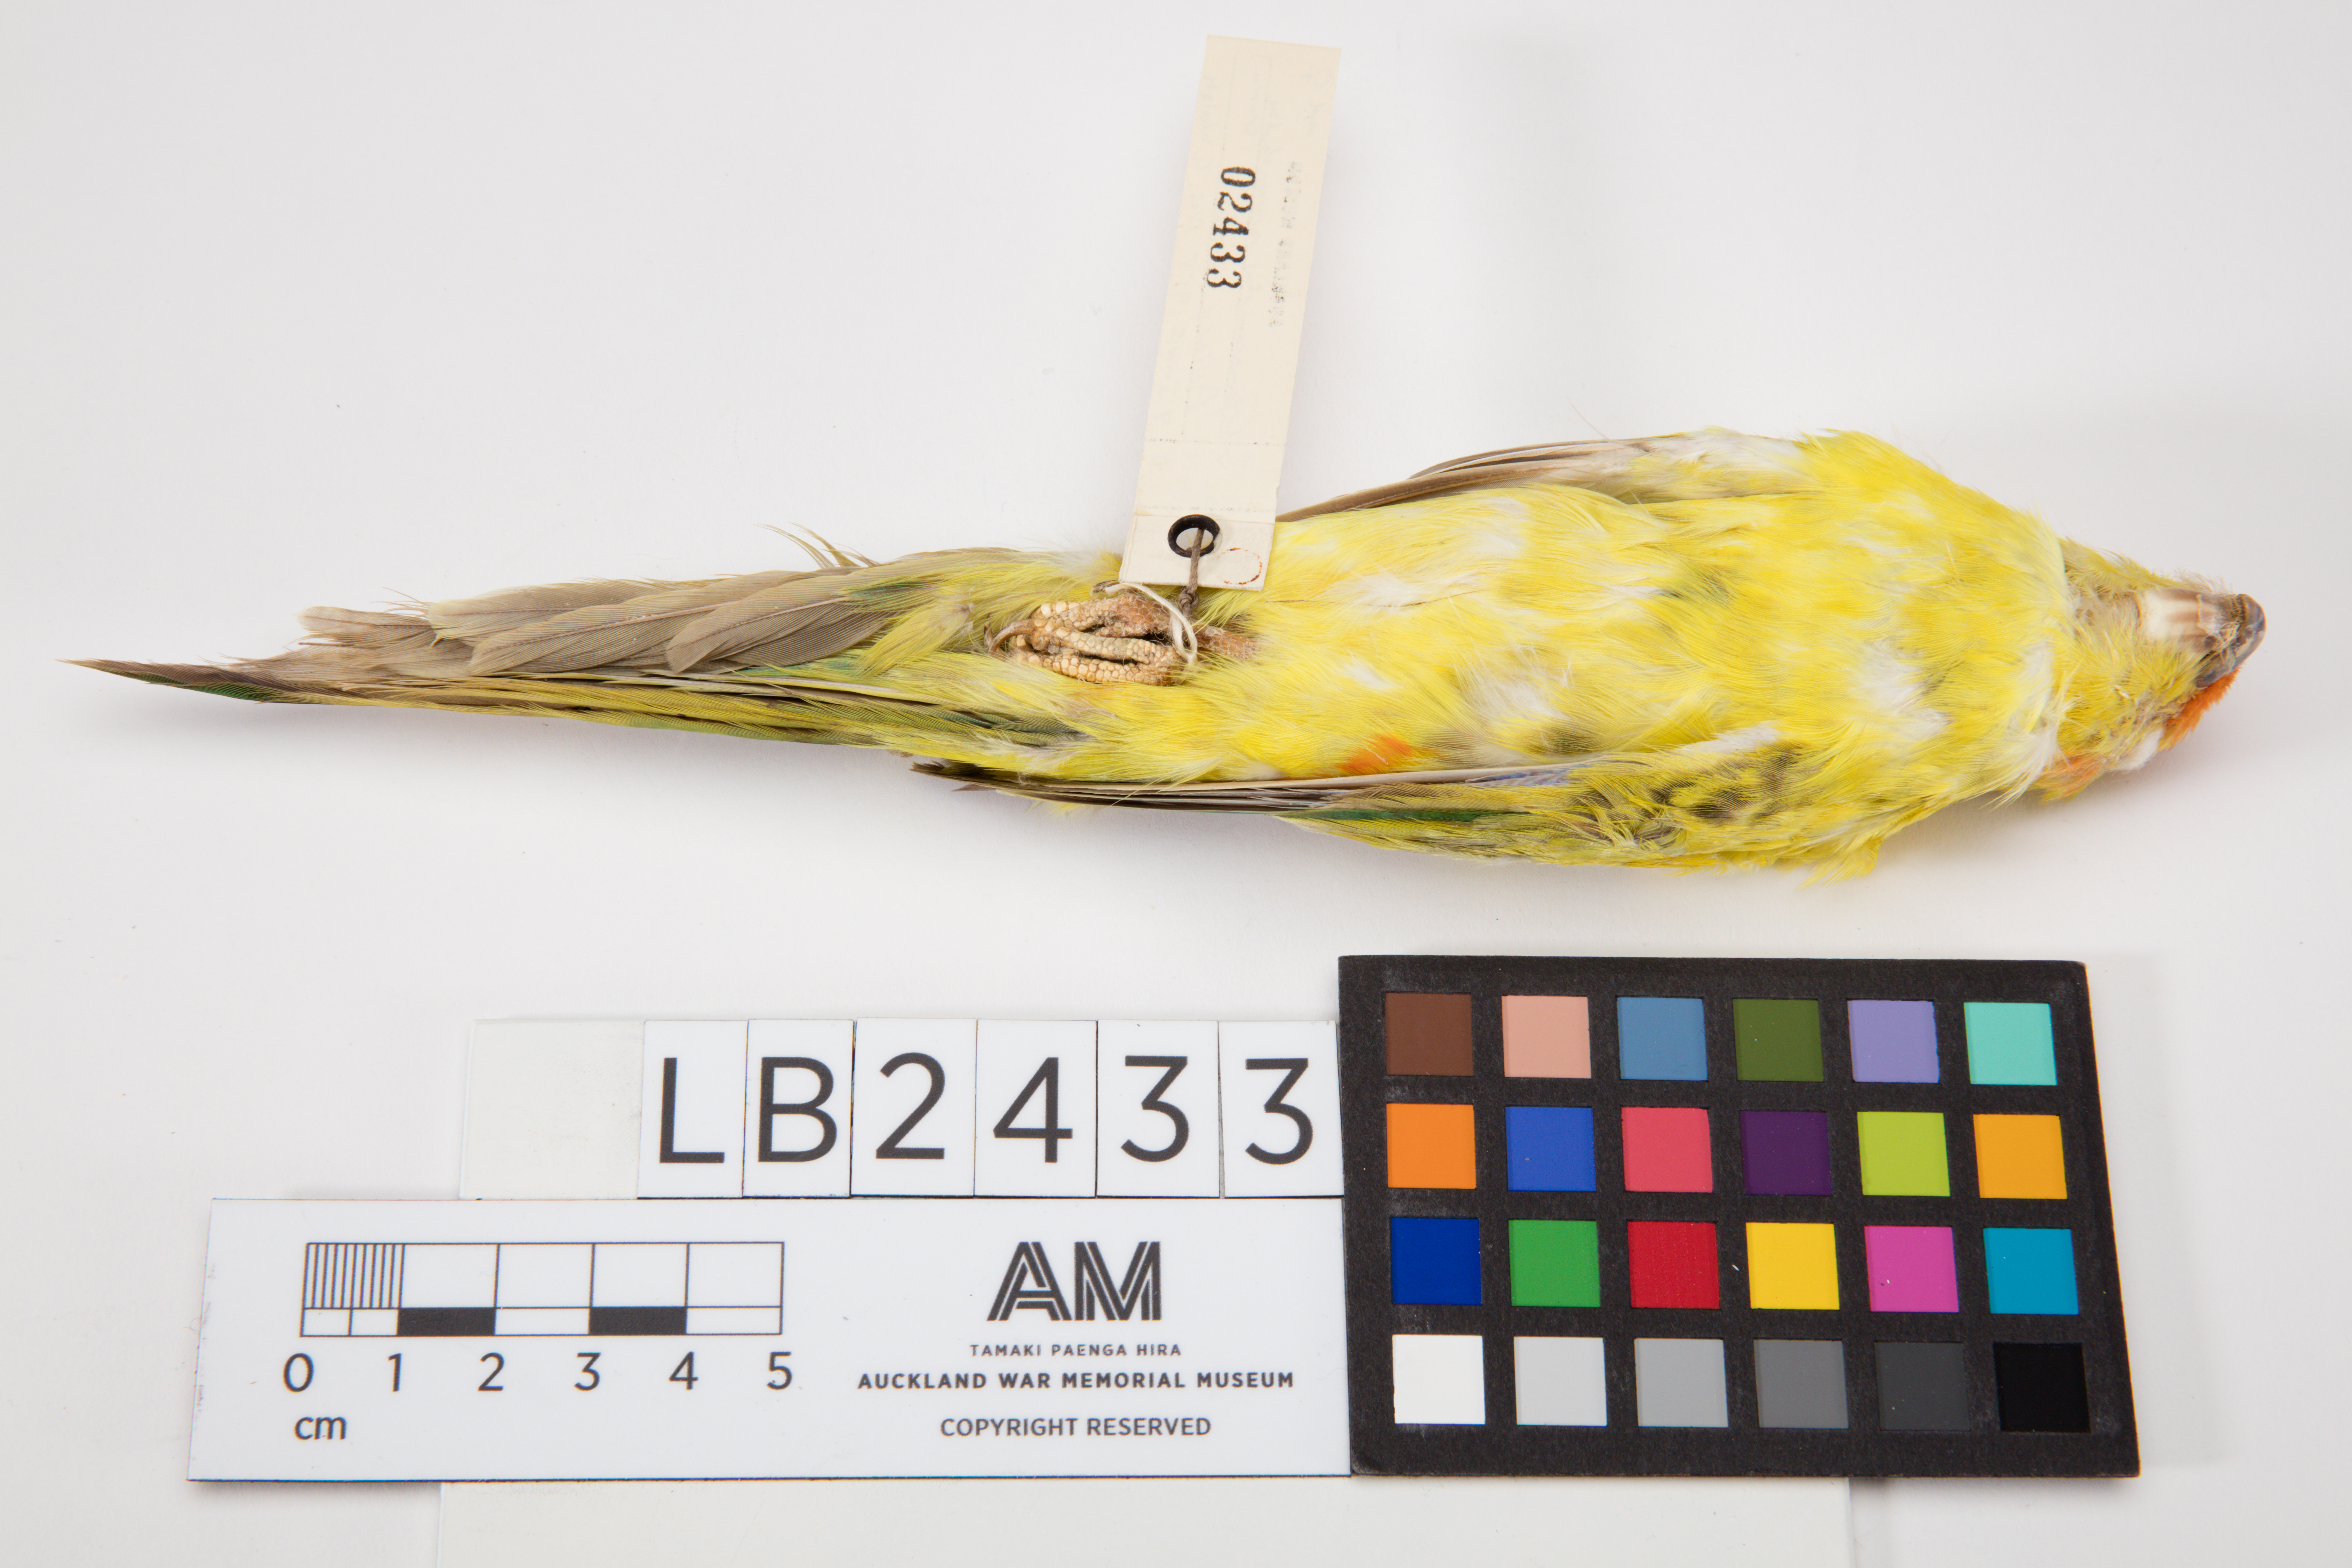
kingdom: Animalia
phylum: Chordata
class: Aves
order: Psittaciformes
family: Psittacidae
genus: Cyanoramphus
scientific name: Cyanoramphus novaezelandiae
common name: Red-fronted parakeet
